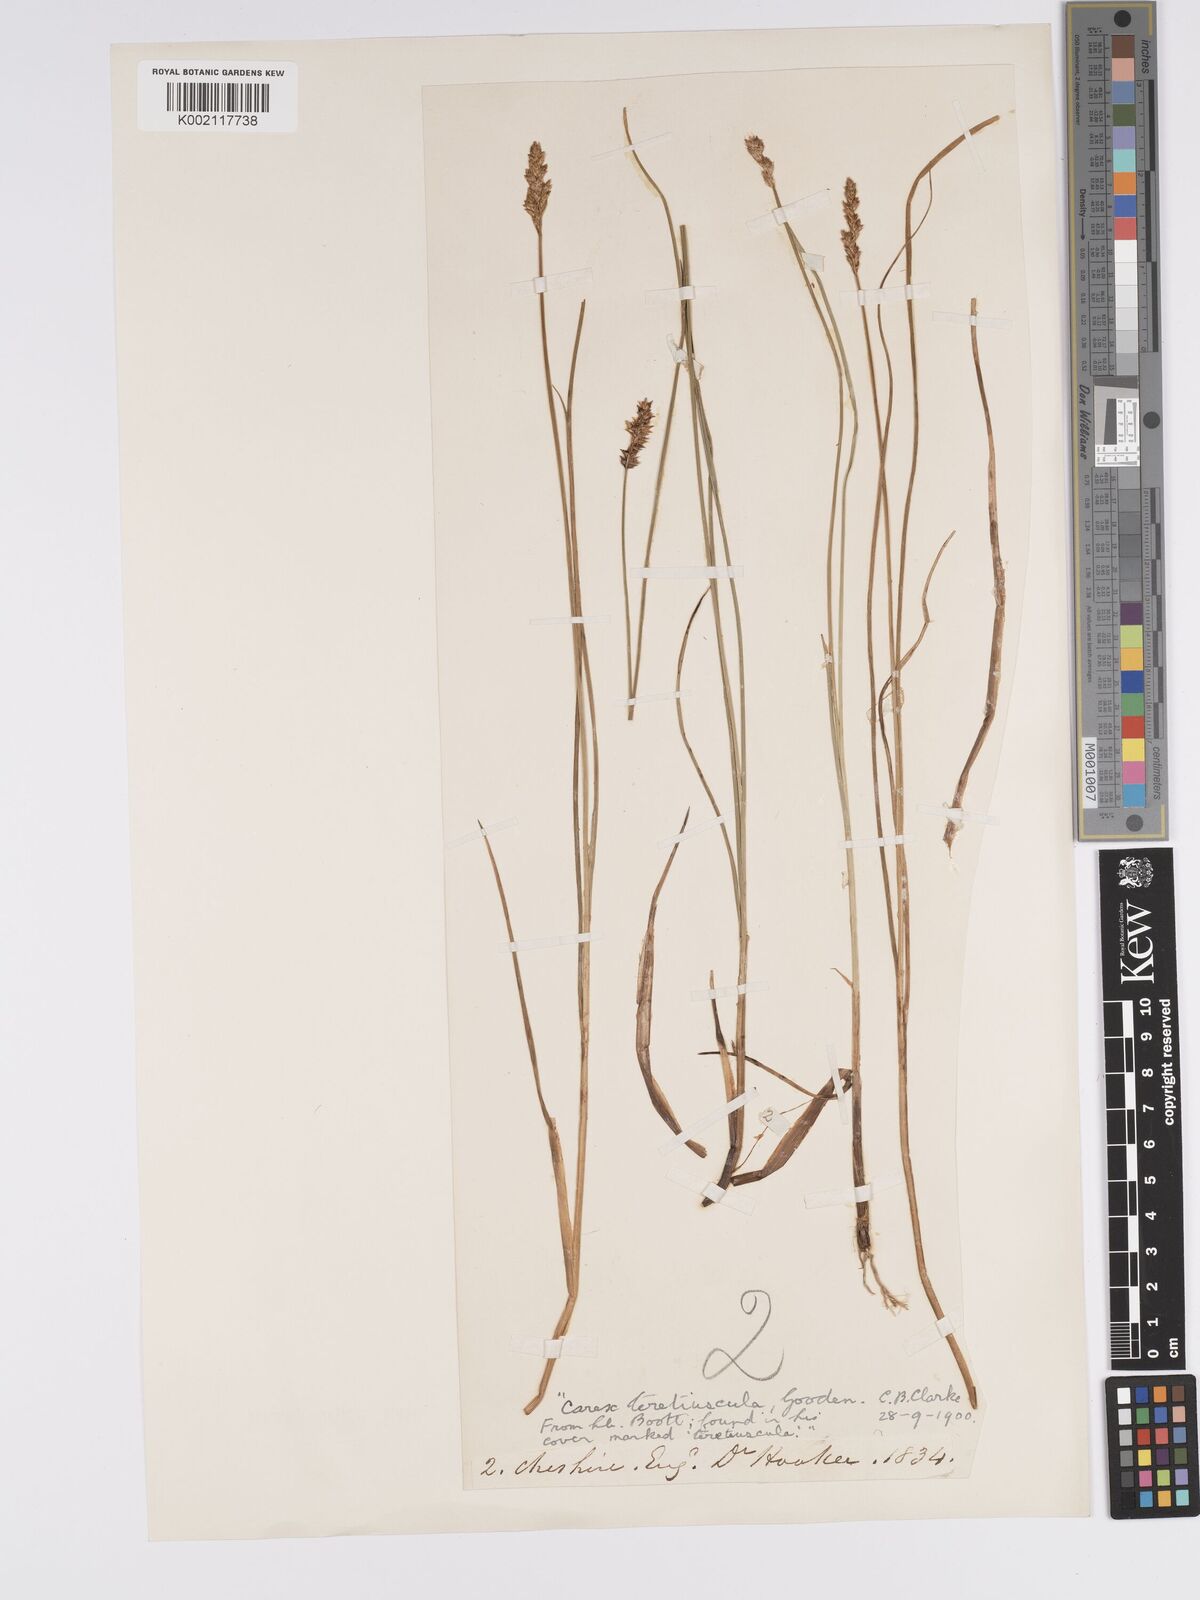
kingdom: Plantae
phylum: Tracheophyta
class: Liliopsida
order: Poales
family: Cyperaceae
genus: Carex
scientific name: Carex diandra
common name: Lesser tussock-sedge
